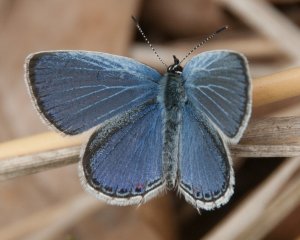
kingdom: Animalia
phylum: Arthropoda
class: Insecta
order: Lepidoptera
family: Lycaenidae
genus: Elkalyce
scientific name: Elkalyce comyntas
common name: Eastern Tailed-Blue
